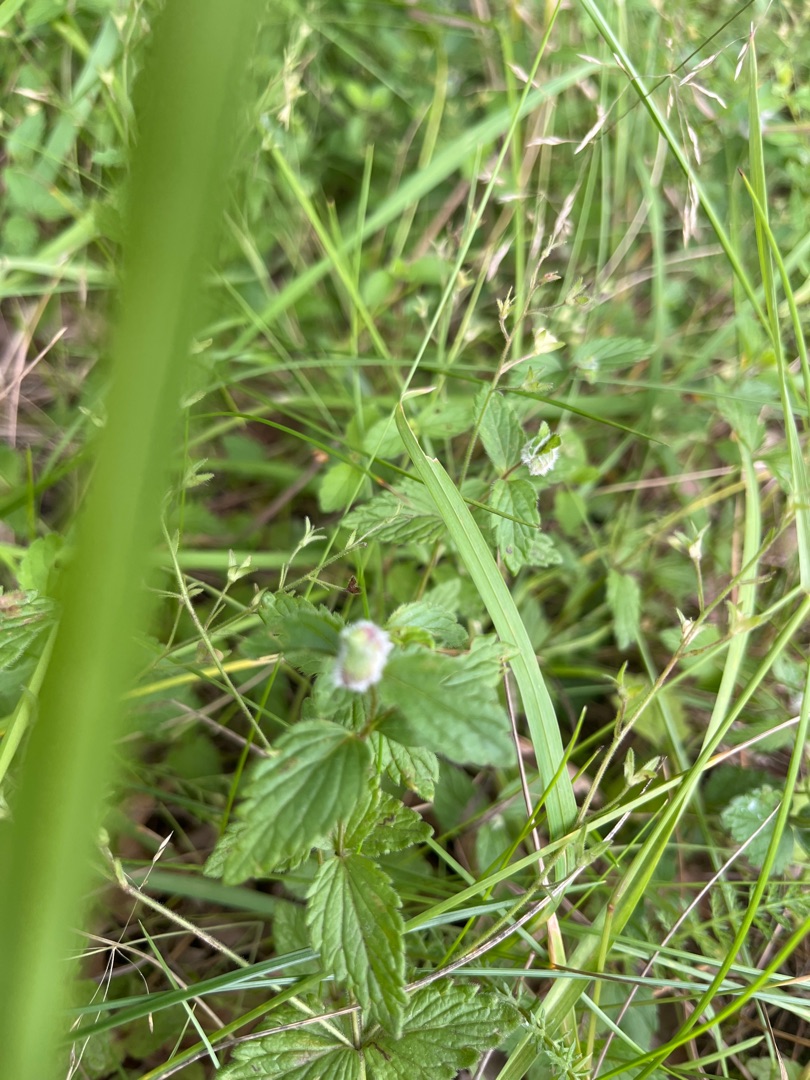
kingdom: Animalia
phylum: Arthropoda
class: Insecta
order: Diptera
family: Cecidomyiidae
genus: Jaapiella
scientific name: Jaapiella veronicae
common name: Ærenprisgalmyg
